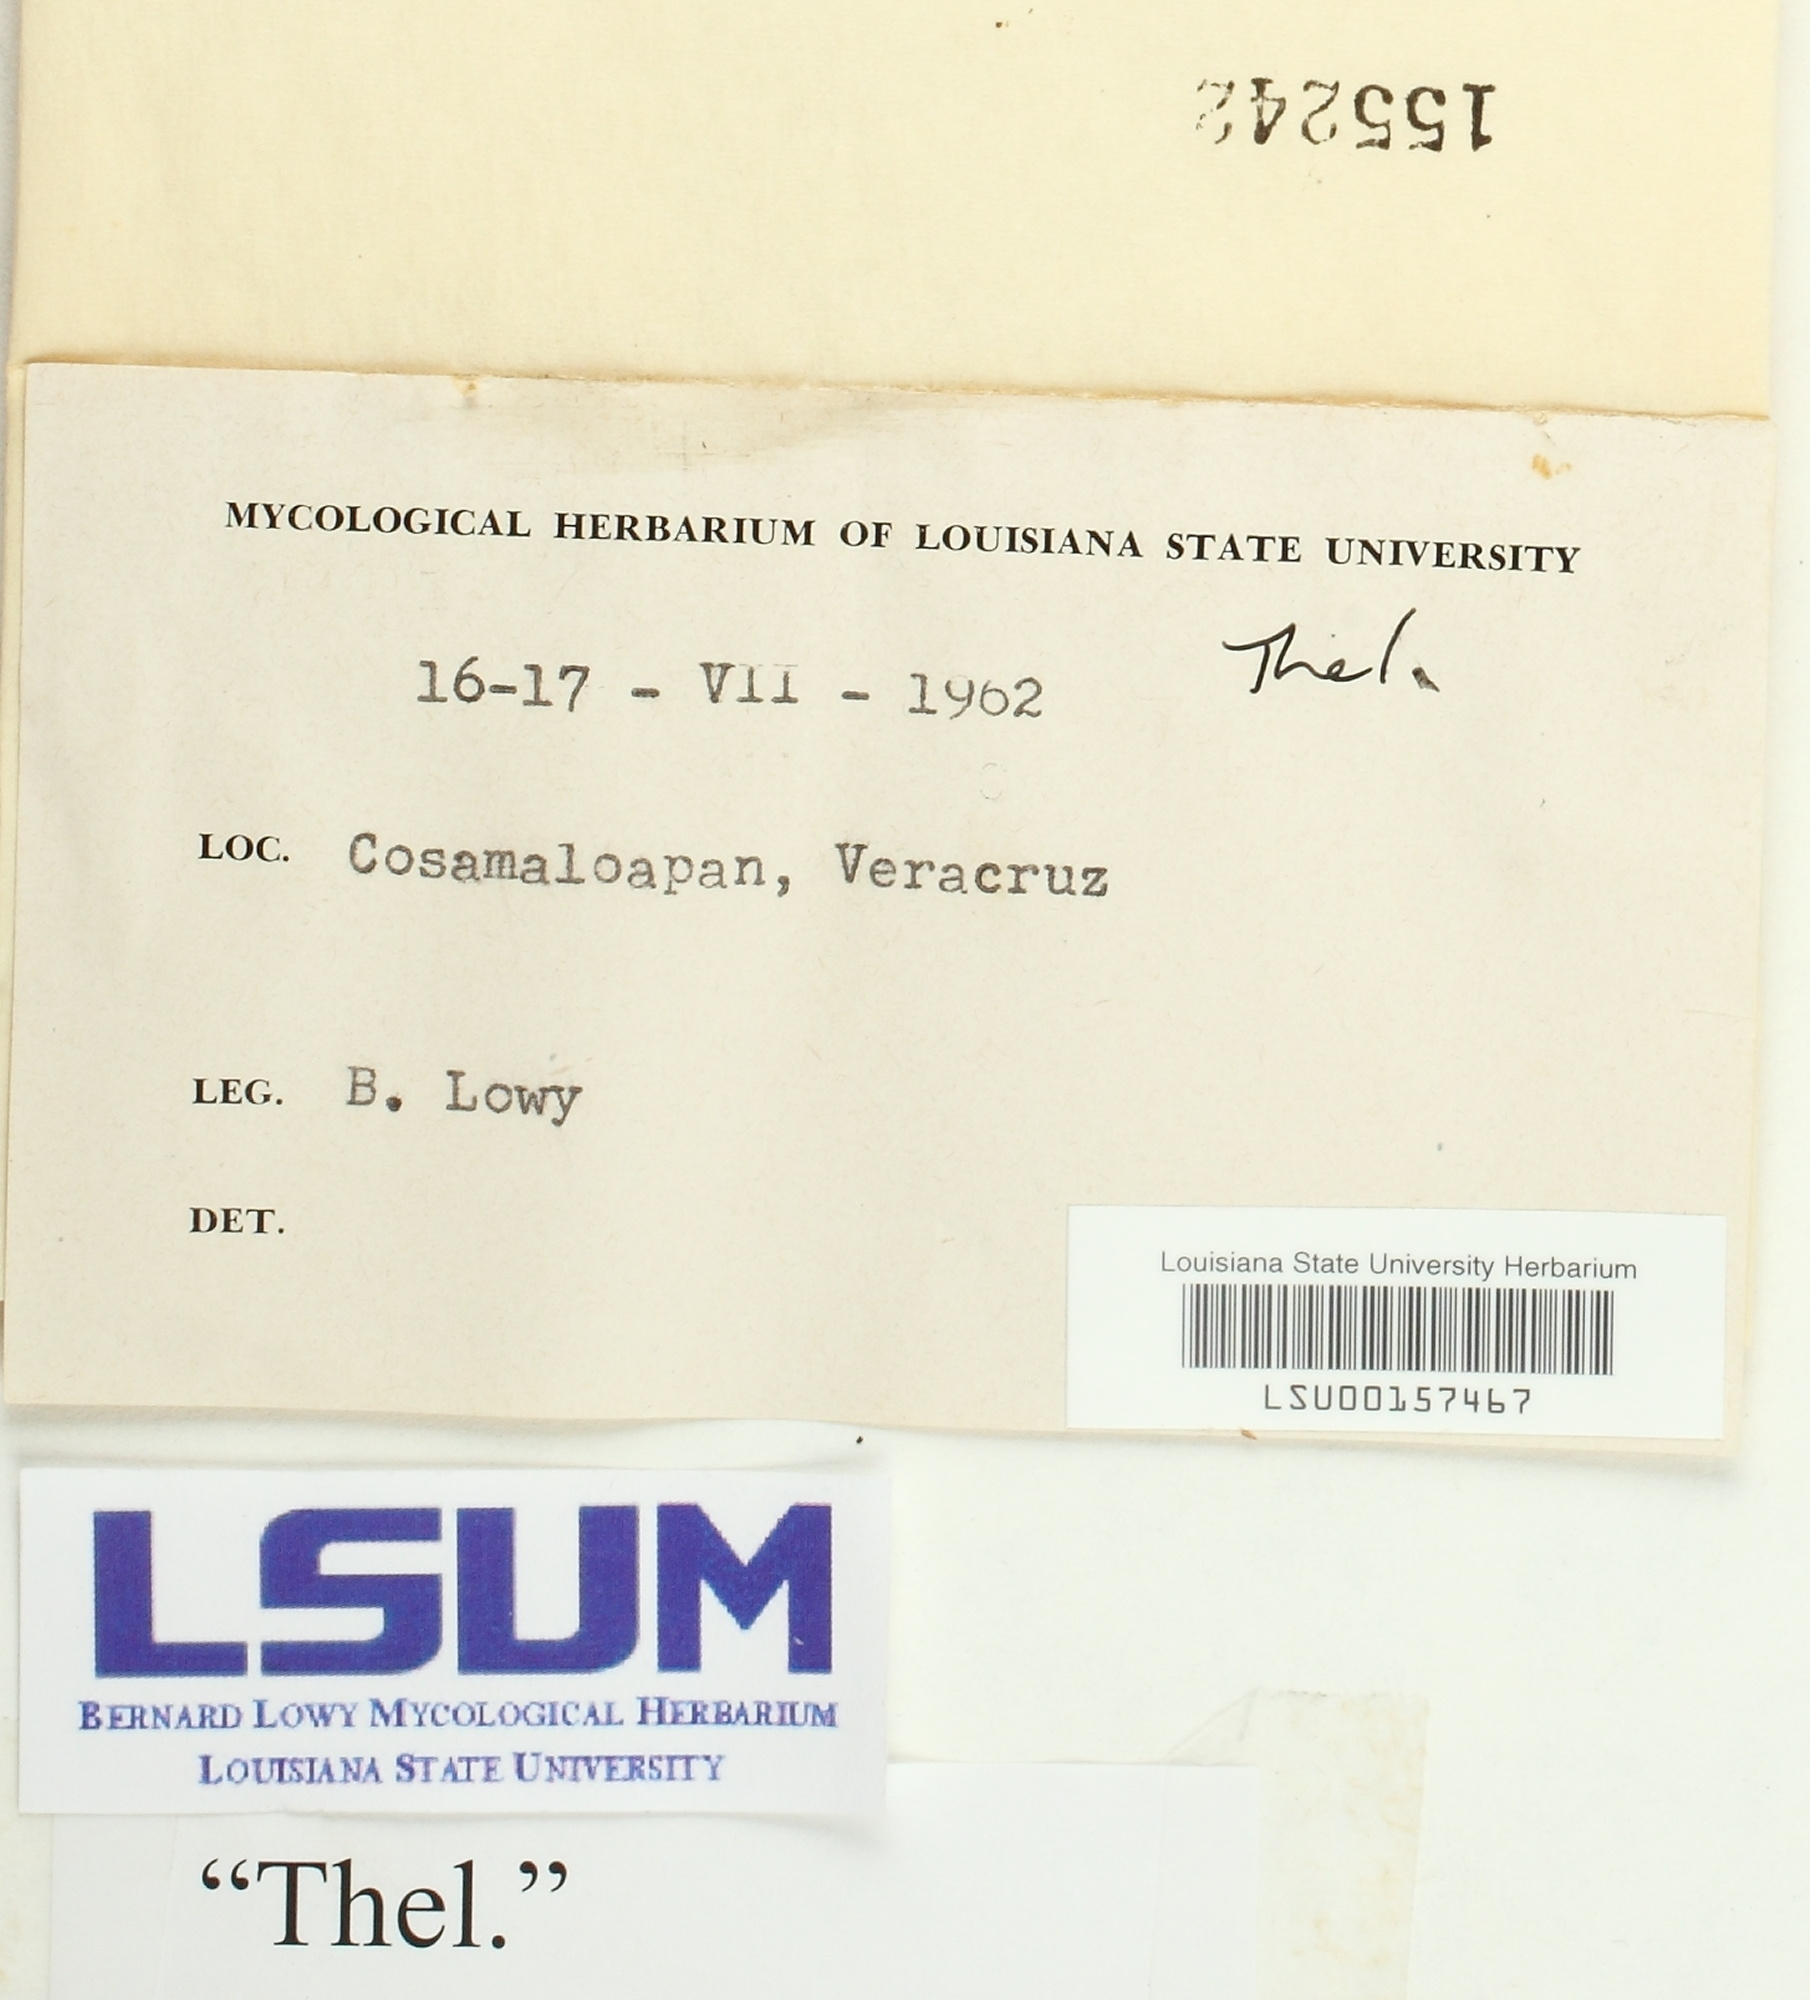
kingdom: Fungi
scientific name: Fungi
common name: Fungi
